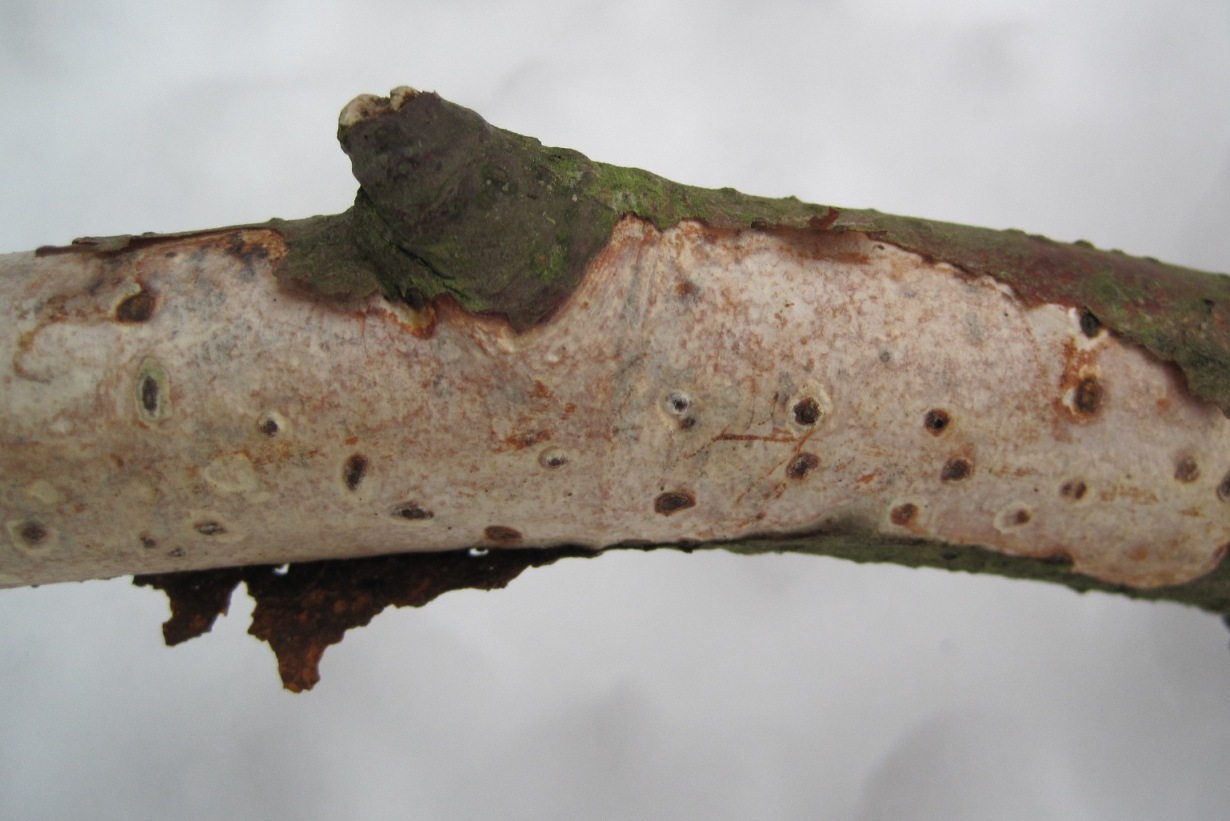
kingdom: Fungi
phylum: Basidiomycota
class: Agaricomycetes
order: Corticiales
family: Vuilleminiaceae
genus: Vuilleminia
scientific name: Vuilleminia comedens
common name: almindelig barksprænger
